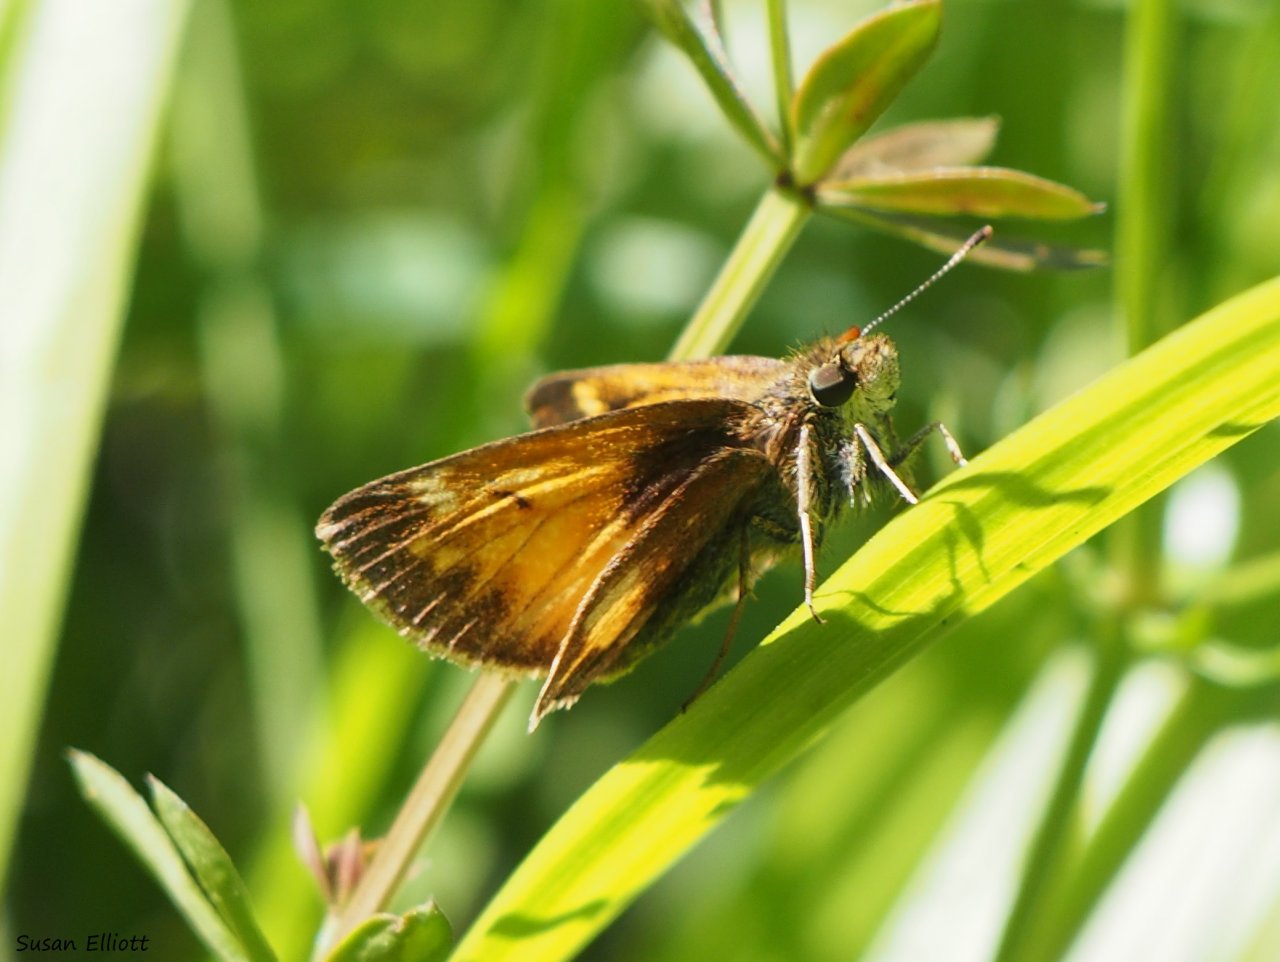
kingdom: Animalia
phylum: Arthropoda
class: Insecta
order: Lepidoptera
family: Hesperiidae
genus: Lon
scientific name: Lon hobomok
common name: Hobomok Skipper
